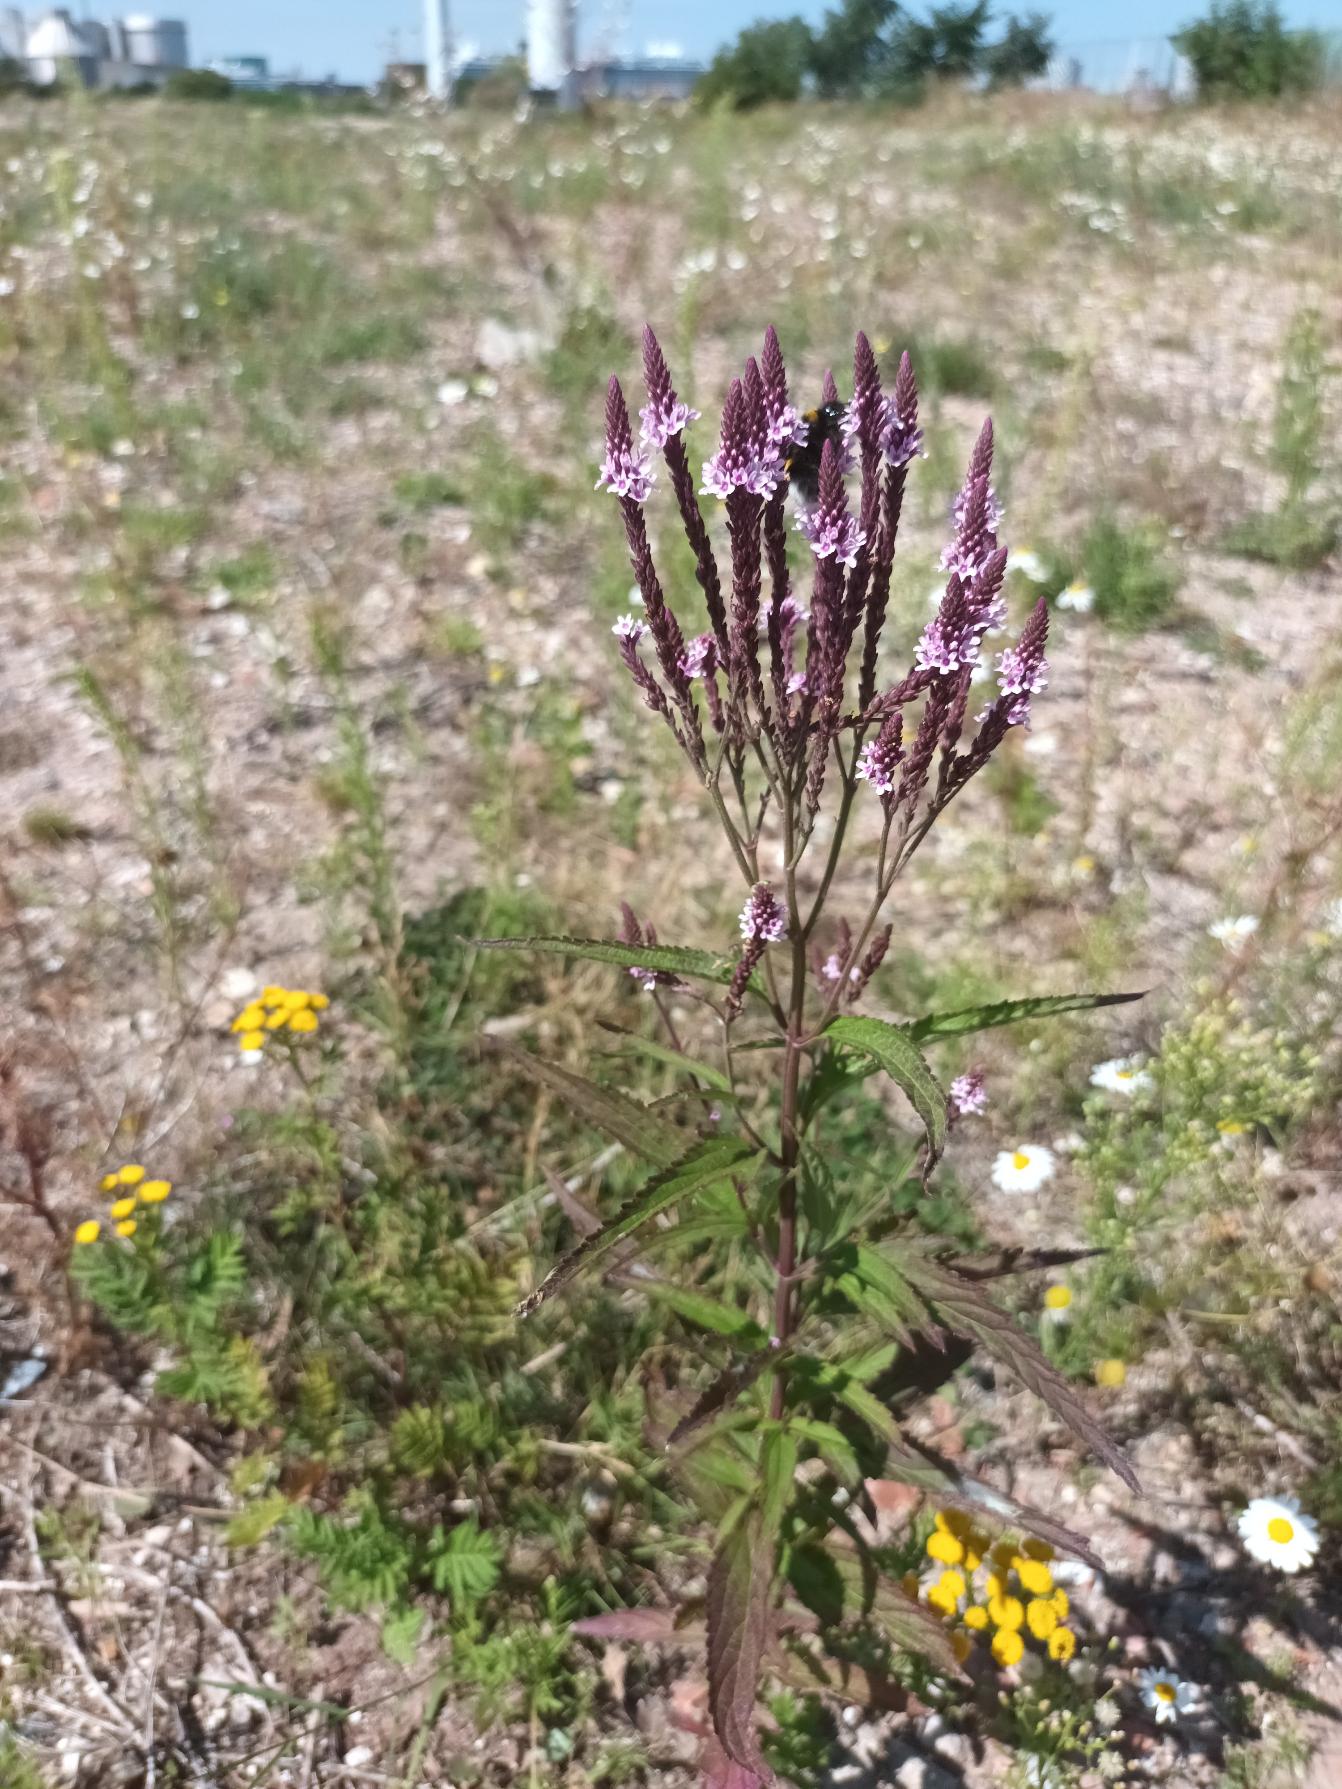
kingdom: Plantae
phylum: Tracheophyta
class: Magnoliopsida
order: Lamiales
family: Verbenaceae
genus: Verbena
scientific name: Verbena hastata
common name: Blå jernurt
